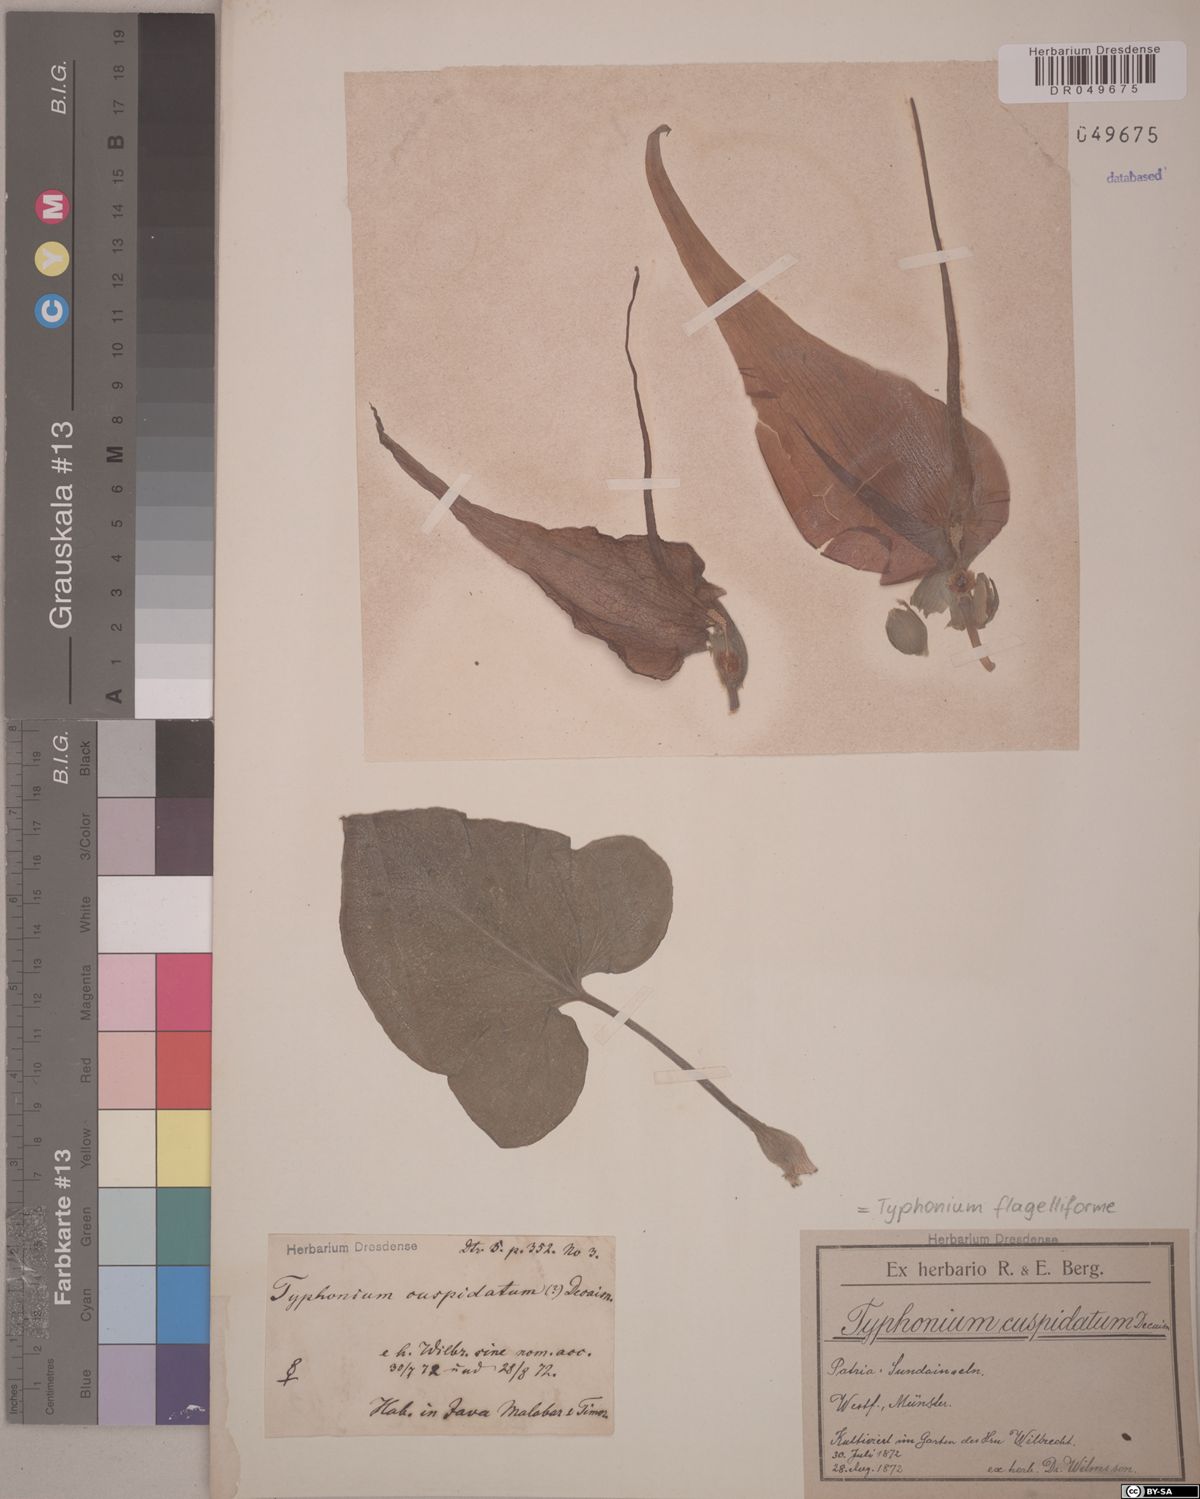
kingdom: Plantae
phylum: Tracheophyta
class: Liliopsida
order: Alismatales
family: Araceae
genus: Typhonium
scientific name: Typhonium flagelliforme
